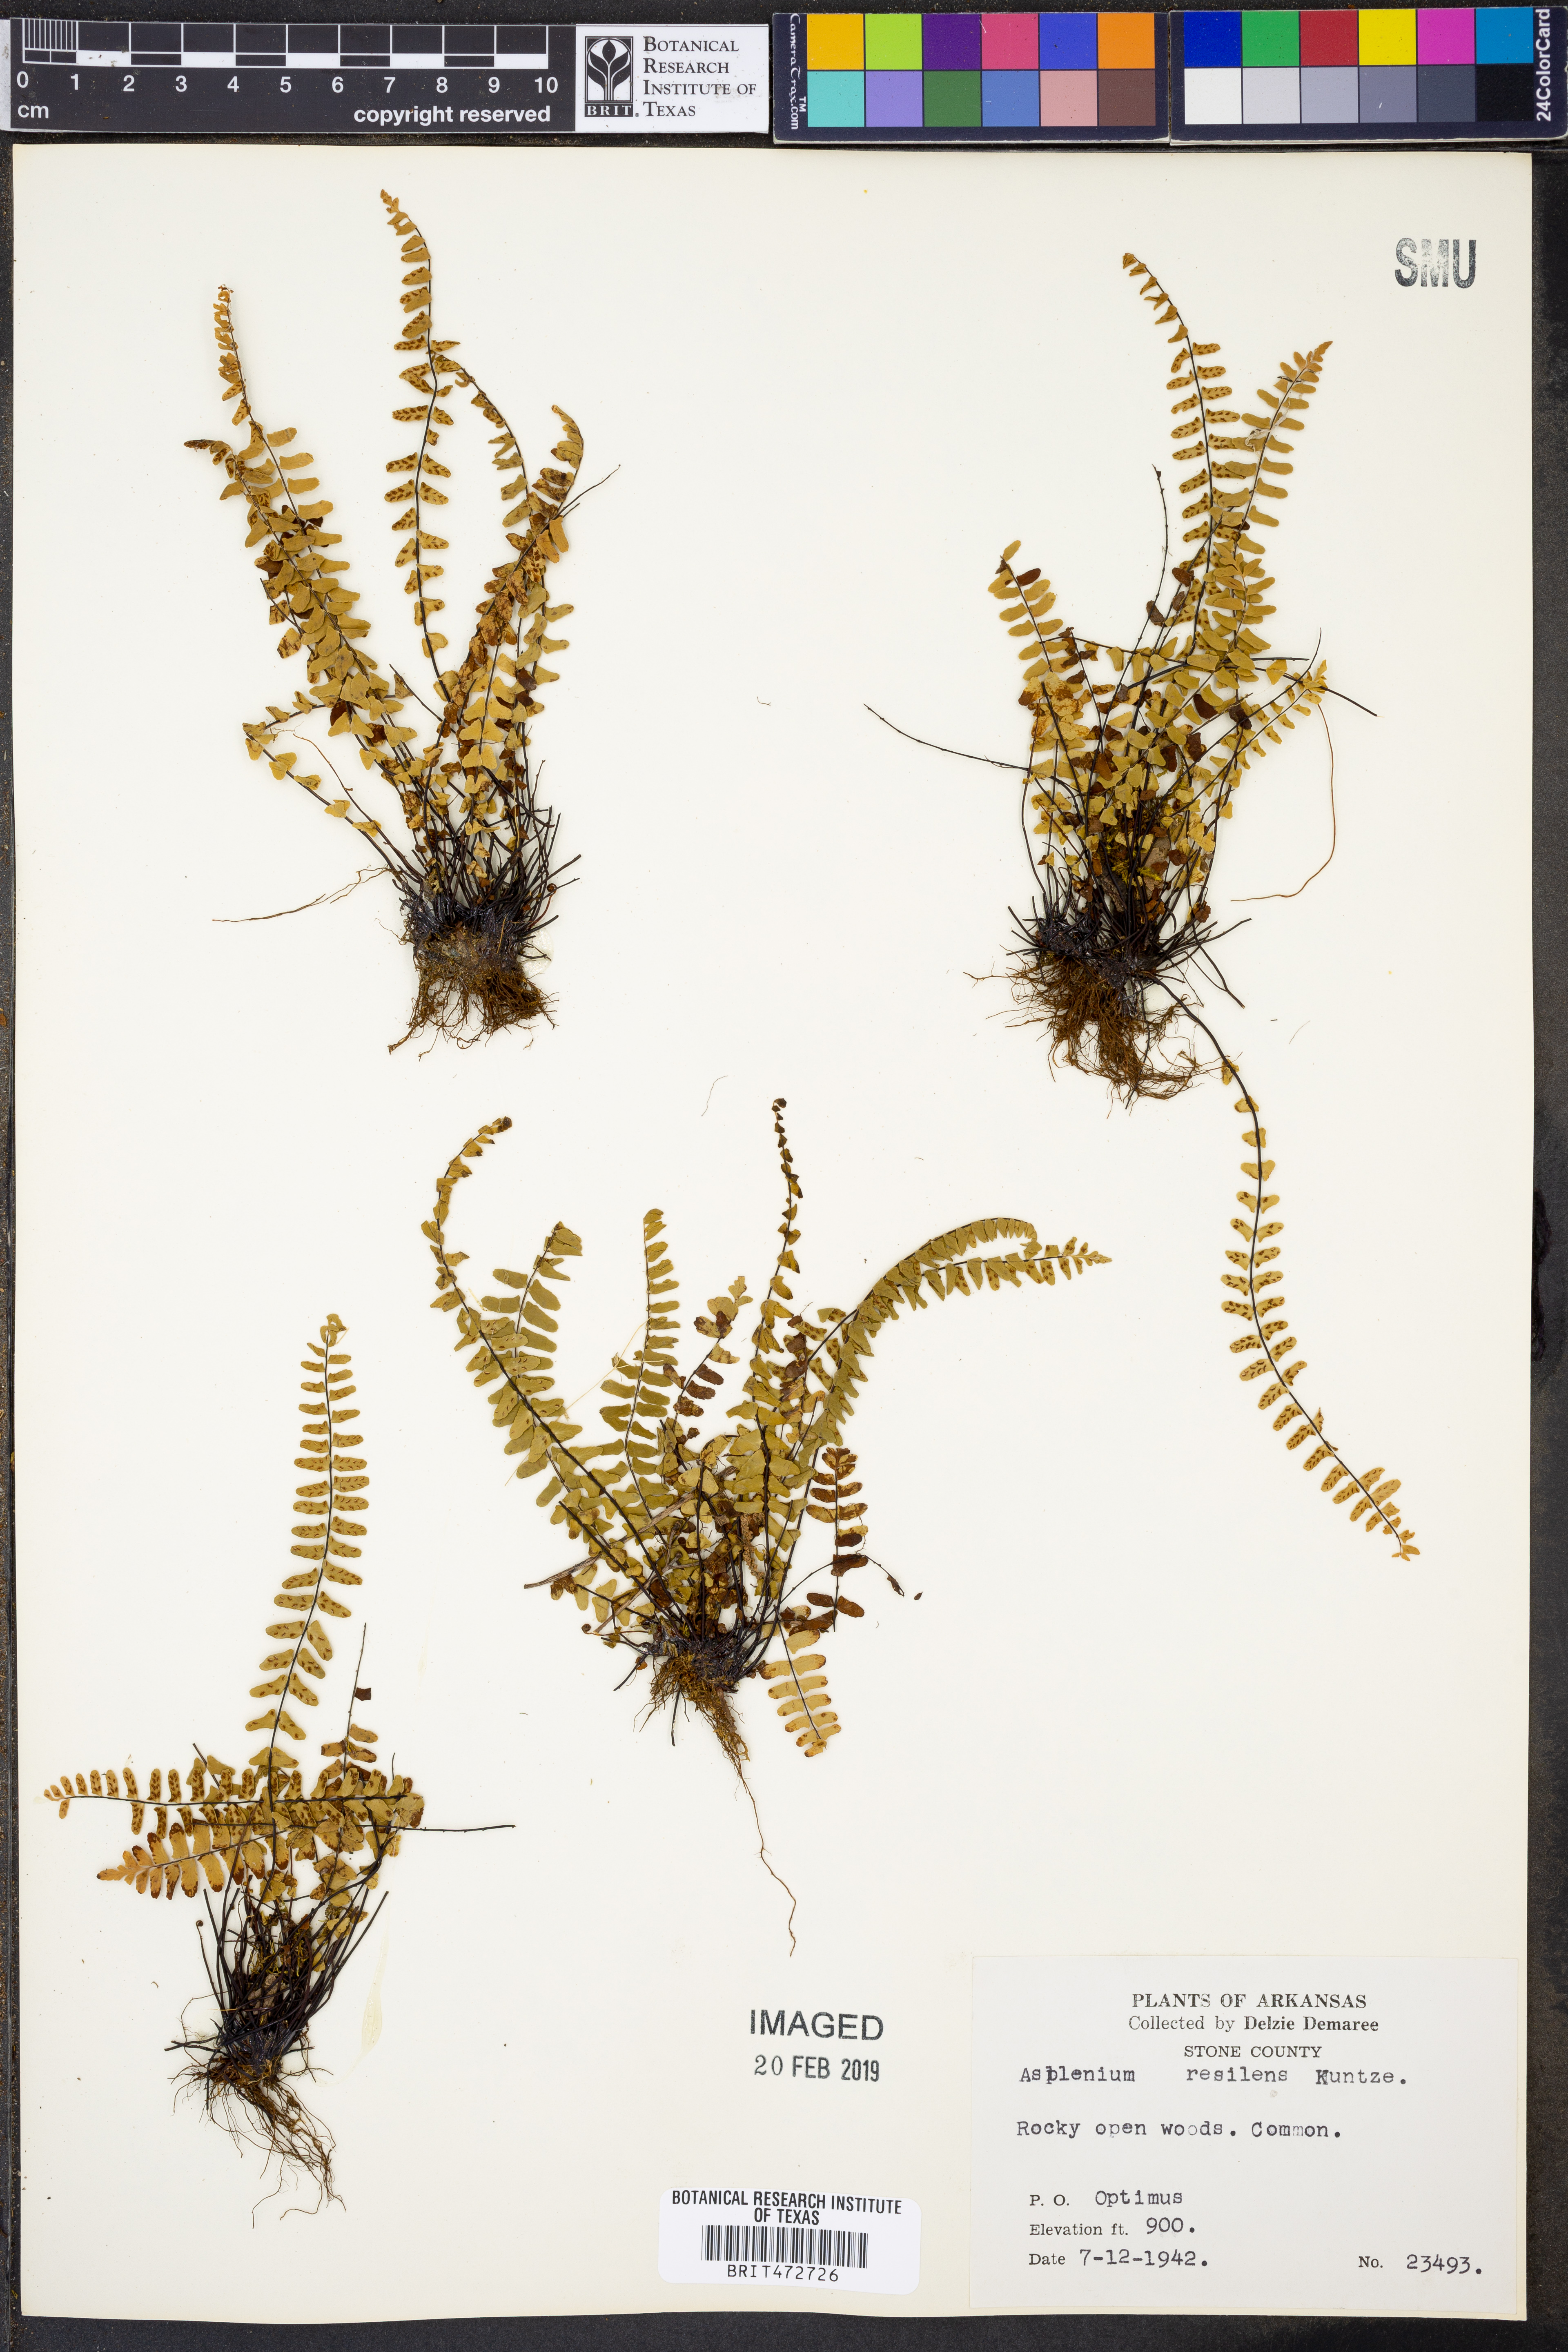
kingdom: Plantae
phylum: Tracheophyta
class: Polypodiopsida
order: Polypodiales
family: Aspleniaceae
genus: Asplenium
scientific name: Asplenium resiliens
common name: Blackstem spleenwort
